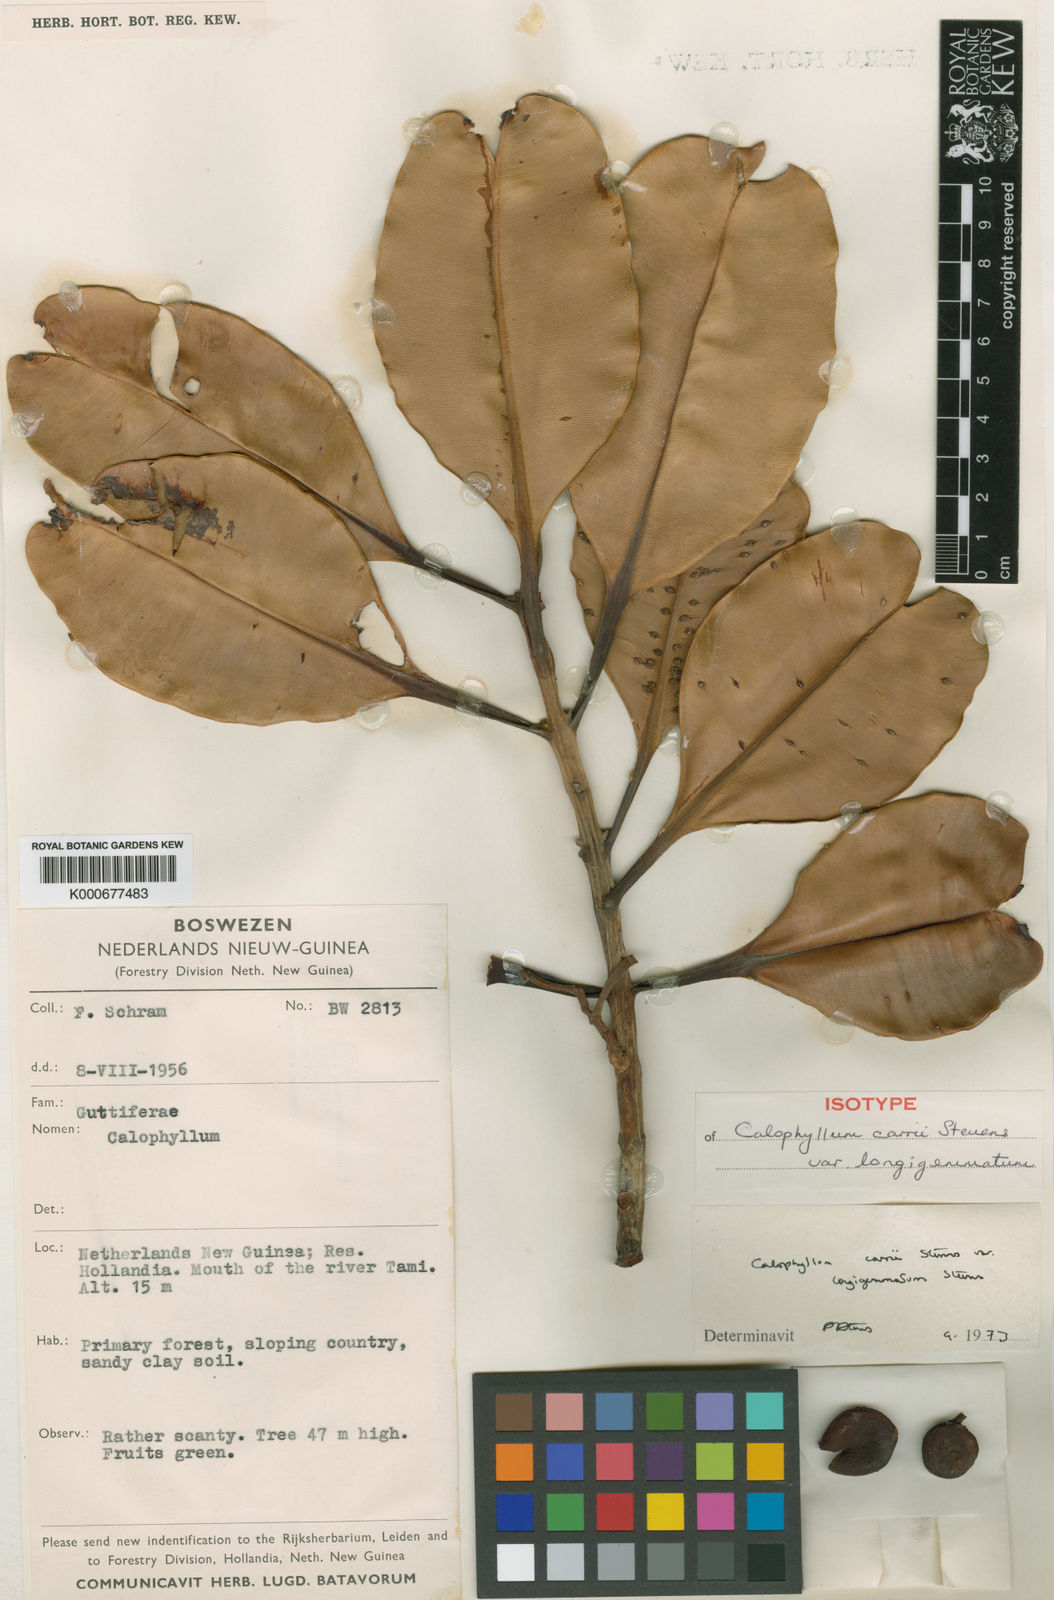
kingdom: Plantae
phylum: Tracheophyta
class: Magnoliopsida
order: Malpighiales
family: Calophyllaceae
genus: Calophyllum
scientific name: Calophyllum carrii
